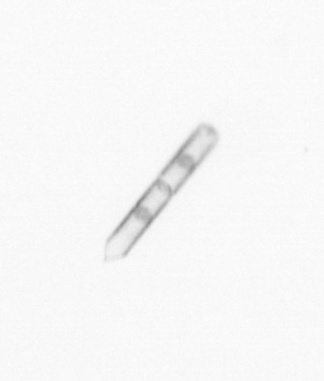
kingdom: Chromista
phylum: Ochrophyta
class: Bacillariophyceae
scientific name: Bacillariophyceae
